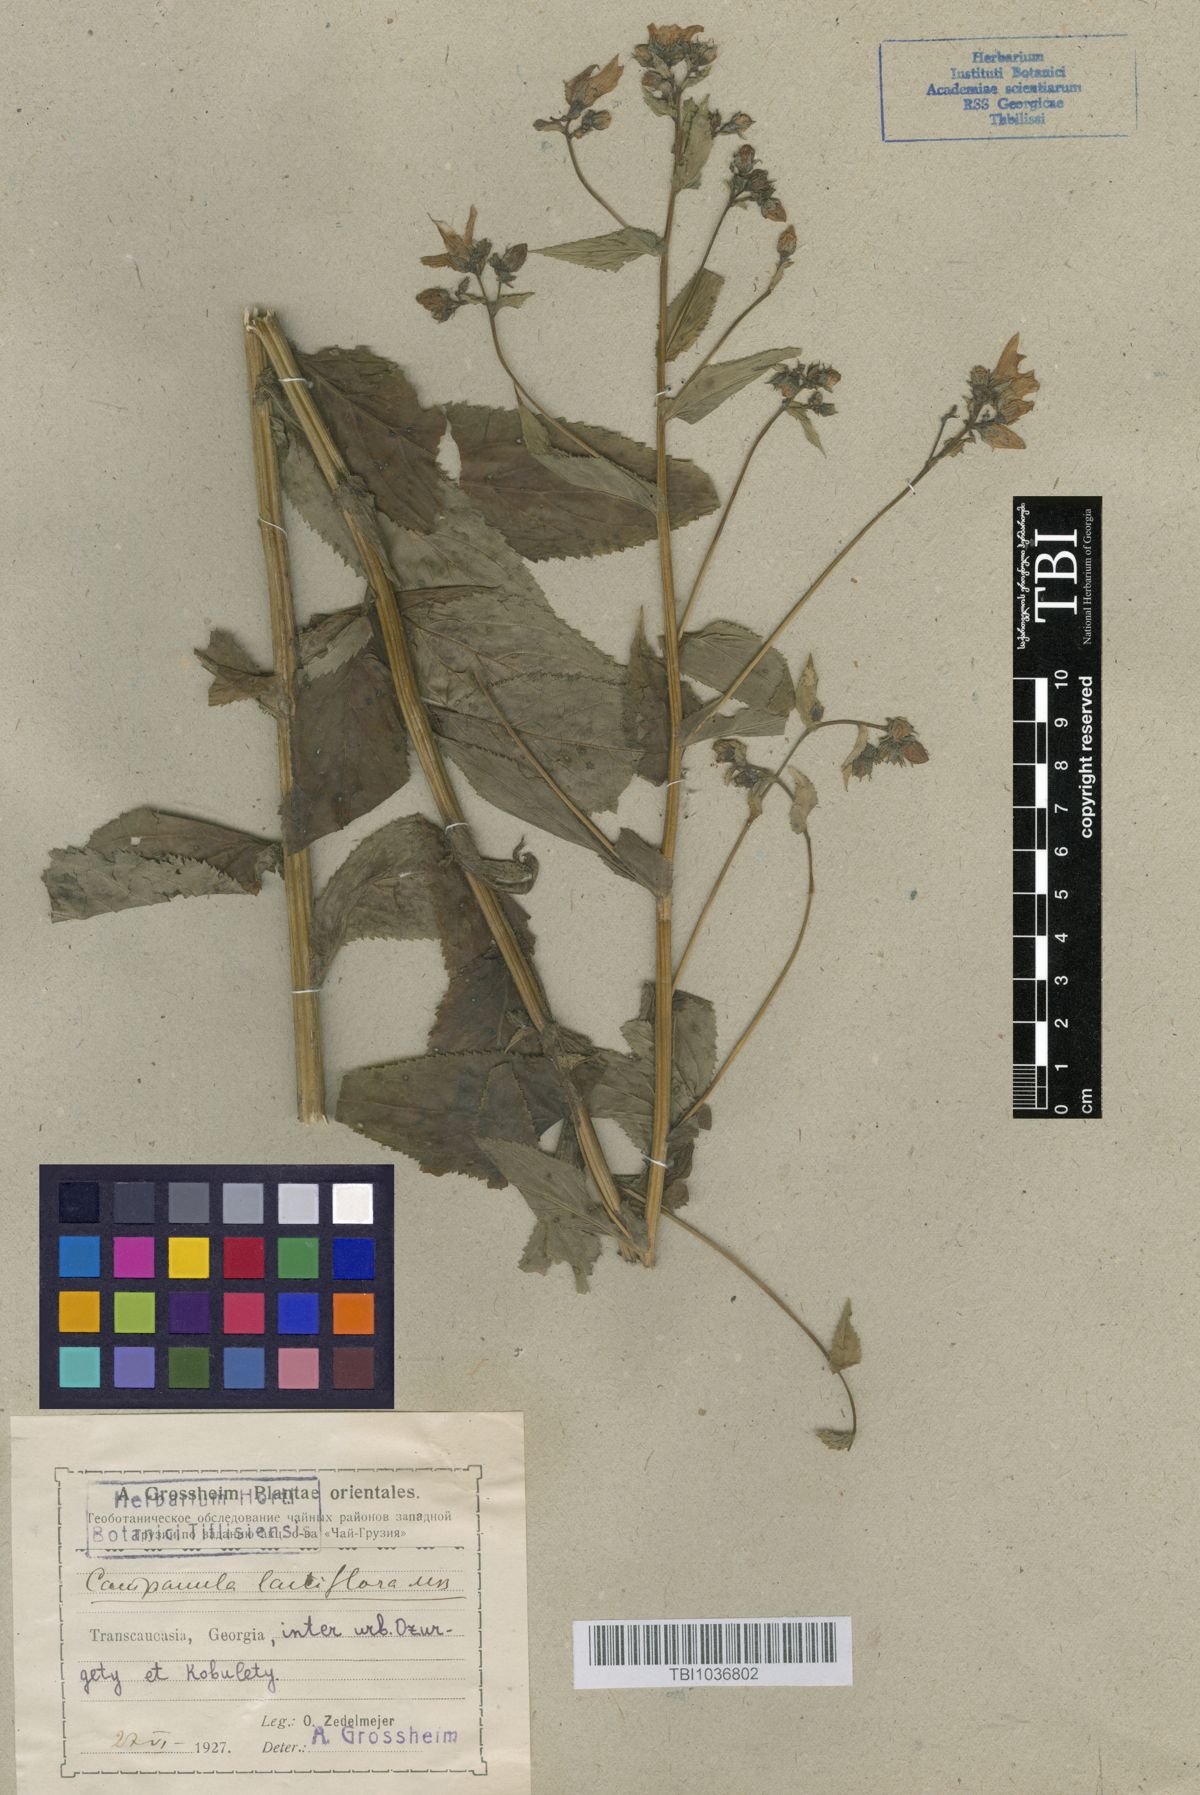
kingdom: Plantae
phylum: Tracheophyta
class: Magnoliopsida
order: Asterales
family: Campanulaceae
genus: Campanula
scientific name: Campanula lactiflora
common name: Milky bellflower
